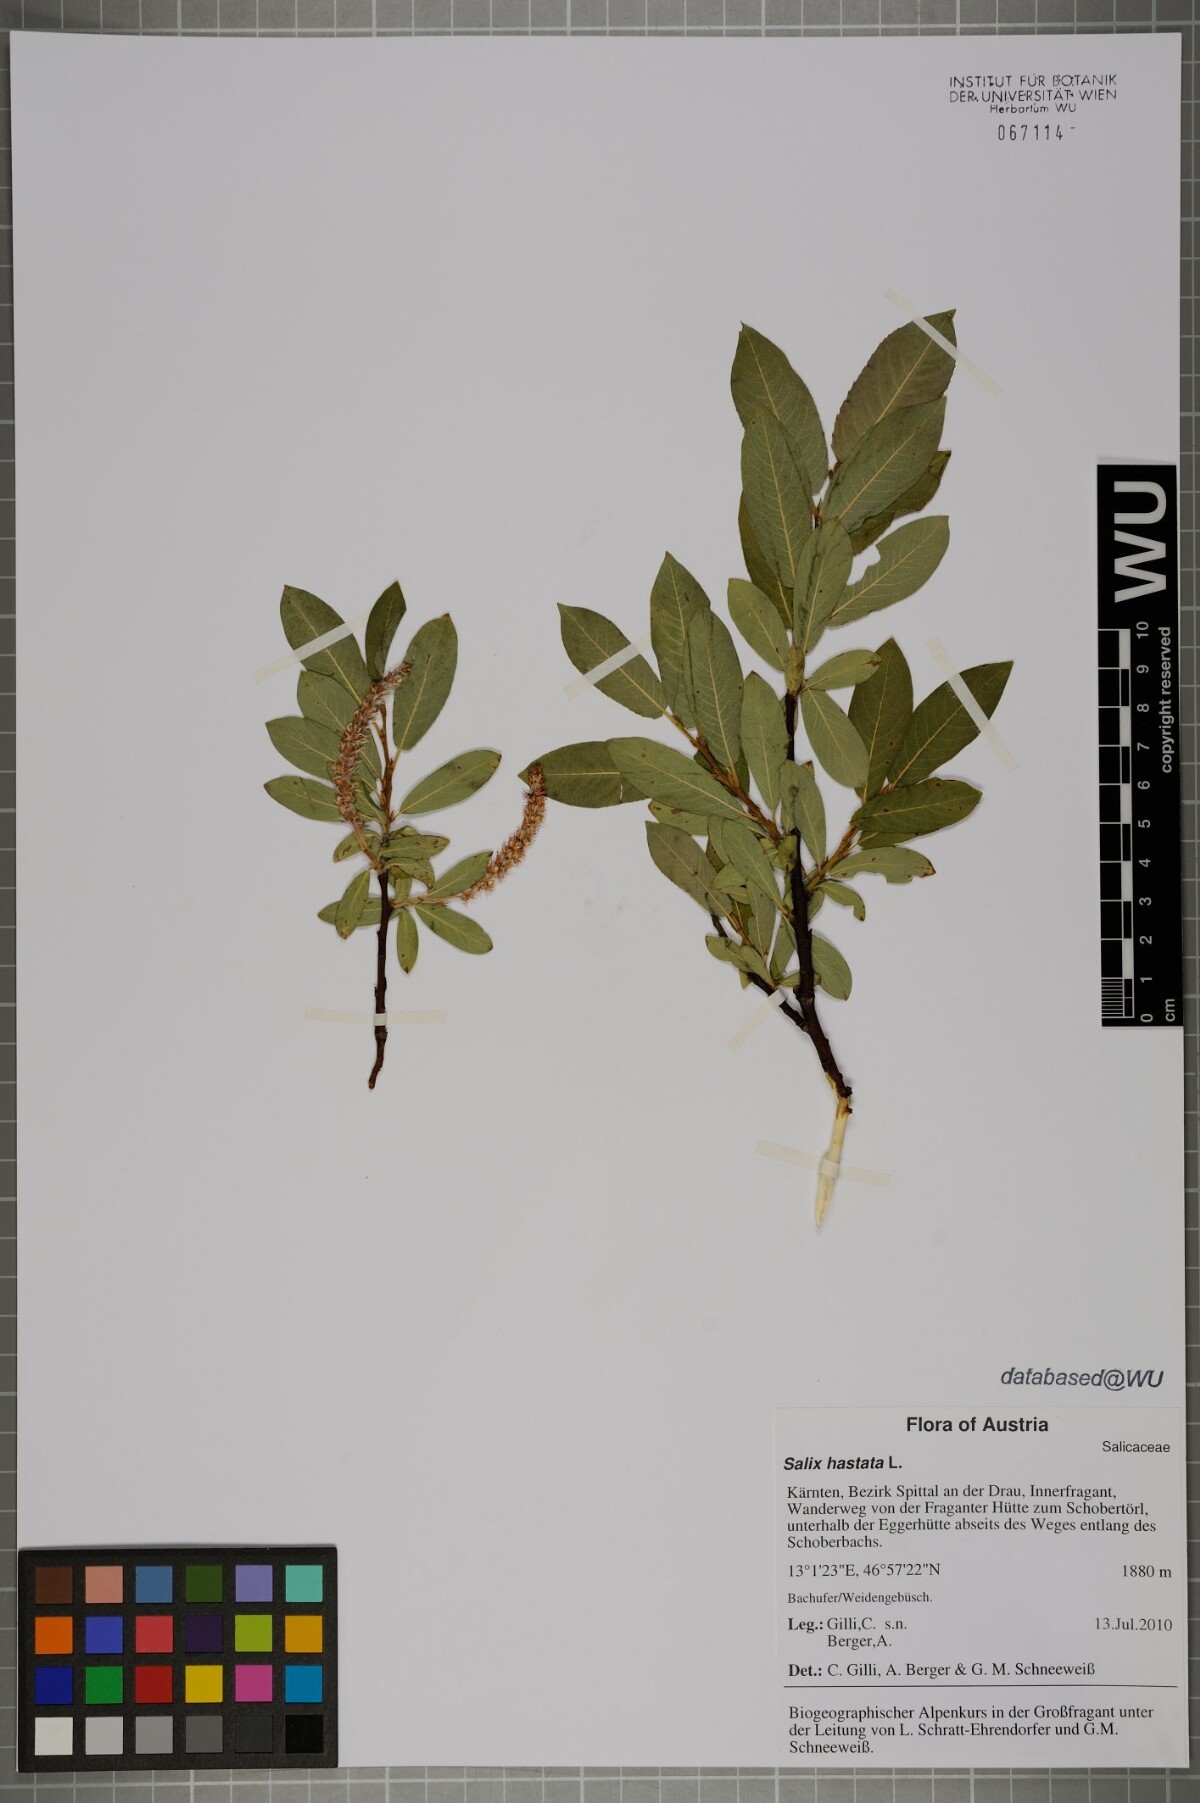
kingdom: Plantae
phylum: Tracheophyta
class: Magnoliopsida
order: Malpighiales
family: Salicaceae
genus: Salix
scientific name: Salix hastata
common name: Halberd willow
